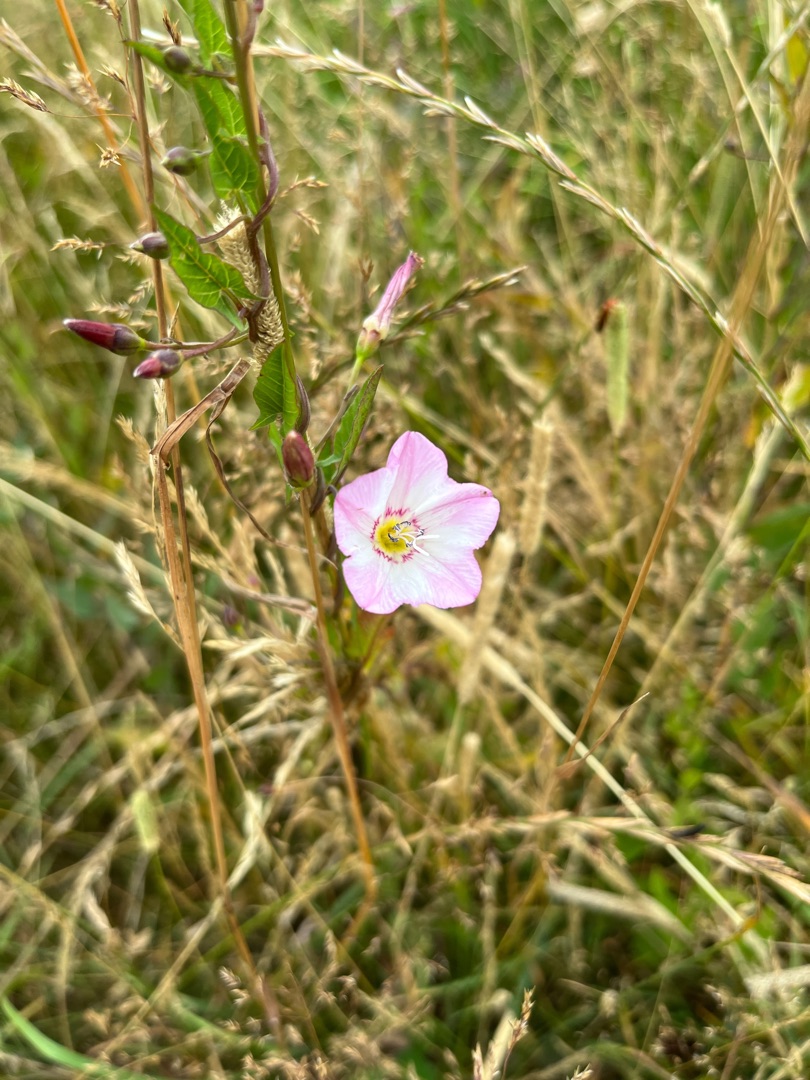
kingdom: Plantae
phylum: Tracheophyta
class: Magnoliopsida
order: Solanales
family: Convolvulaceae
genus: Convolvulus
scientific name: Convolvulus arvensis
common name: Ager-snerle
